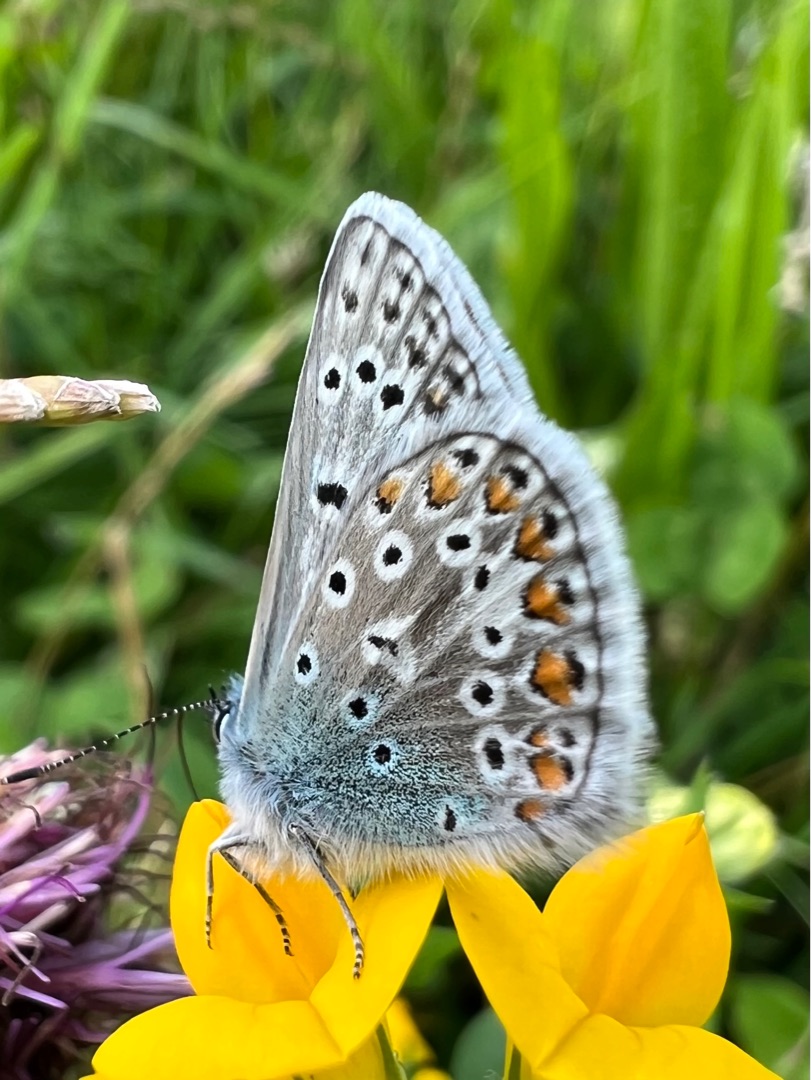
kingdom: Animalia
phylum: Arthropoda
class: Insecta
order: Lepidoptera
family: Lycaenidae
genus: Polyommatus
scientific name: Polyommatus icarus
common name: Almindelig blåfugl
